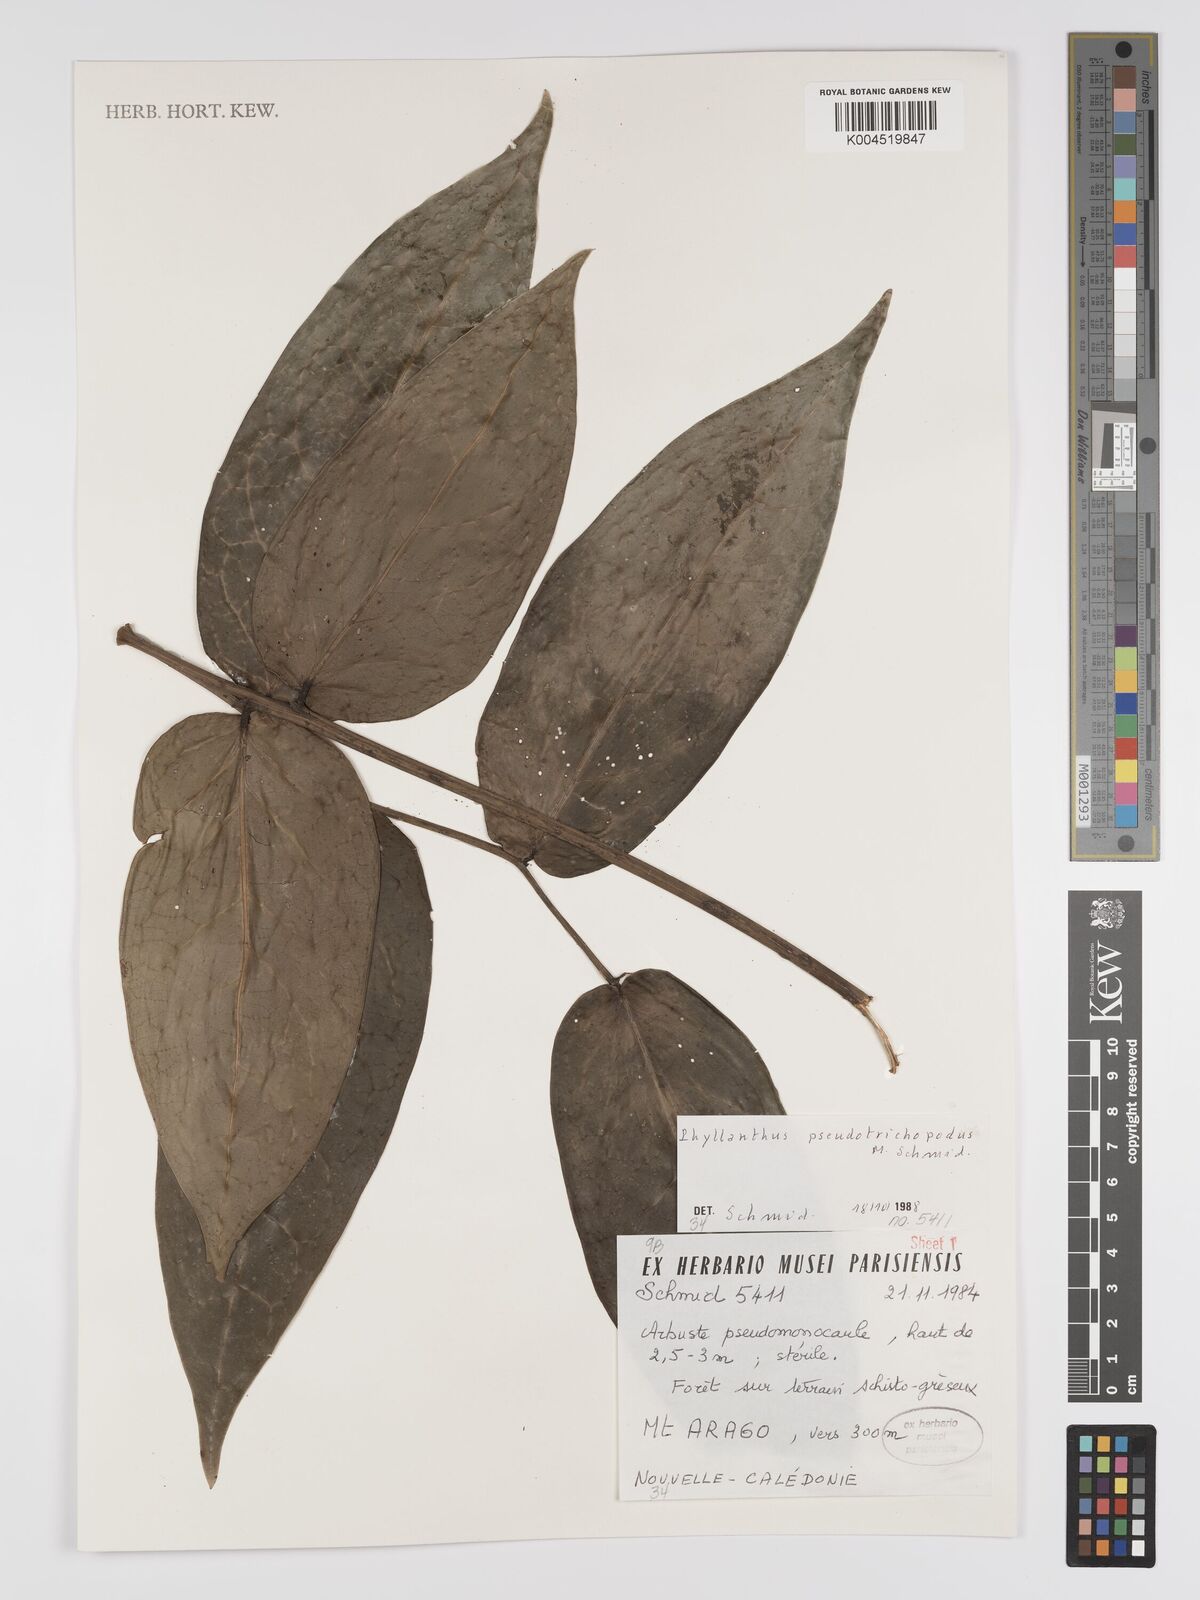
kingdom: Plantae
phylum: Tracheophyta
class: Magnoliopsida
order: Malpighiales
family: Phyllanthaceae
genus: Phyllanthus
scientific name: Phyllanthus pseudotrichopodus
